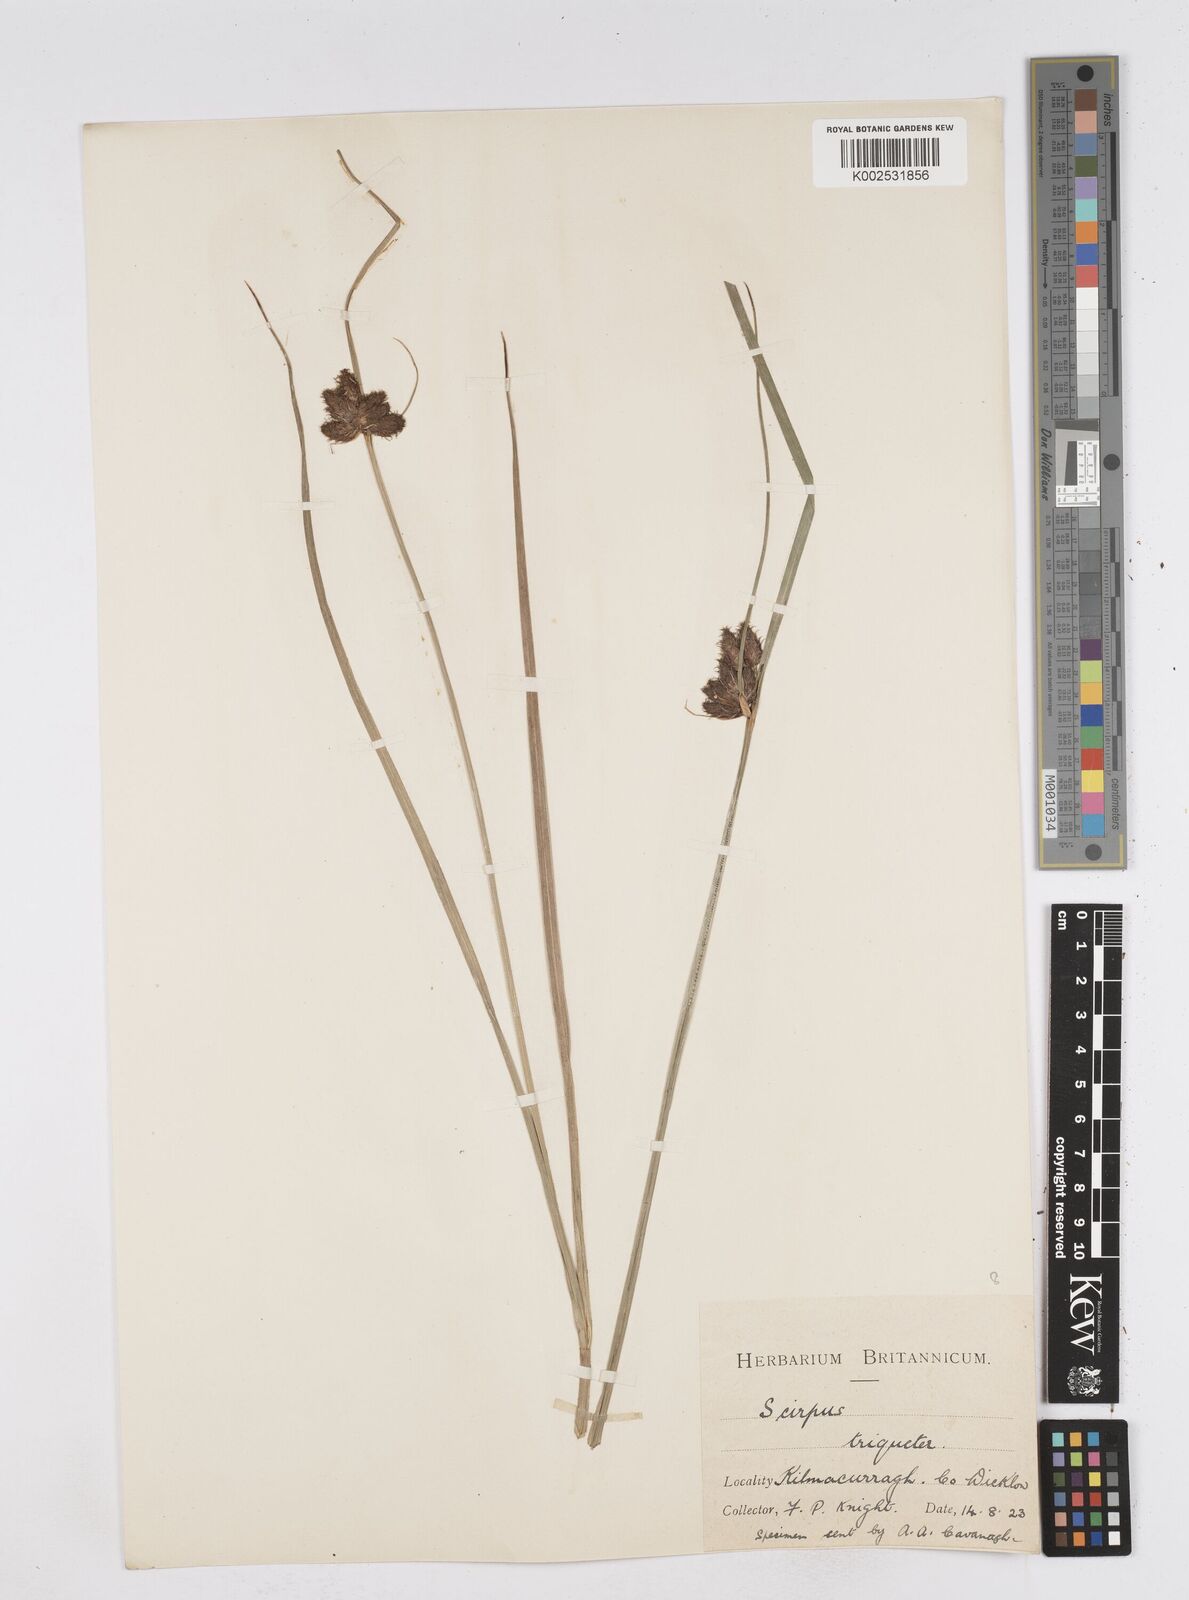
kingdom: Plantae
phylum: Tracheophyta
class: Liliopsida
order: Poales
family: Cyperaceae
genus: Bolboschoenus
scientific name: Bolboschoenus maritimus
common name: Sea club-rush
